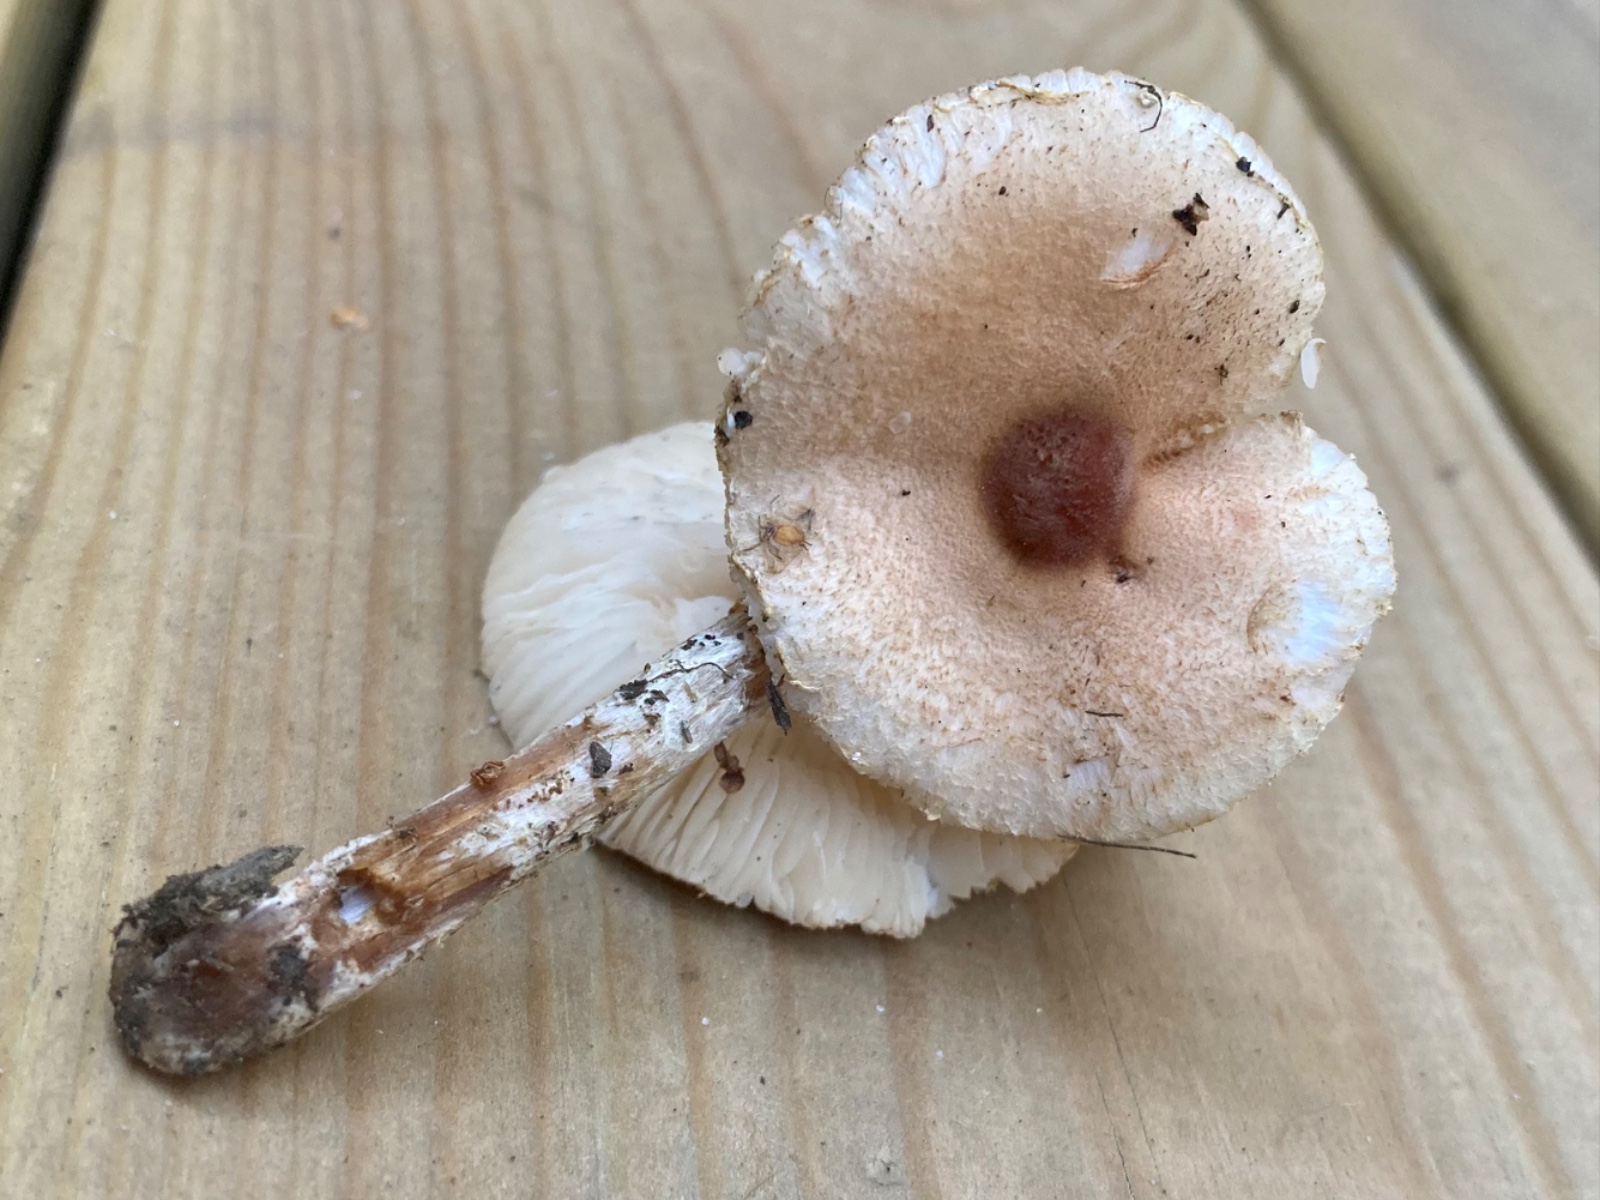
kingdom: Fungi
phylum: Basidiomycota
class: Agaricomycetes
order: Agaricales
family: Agaricaceae
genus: Lepiota
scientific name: Lepiota oreadiformis
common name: blegbrun parasolhat
